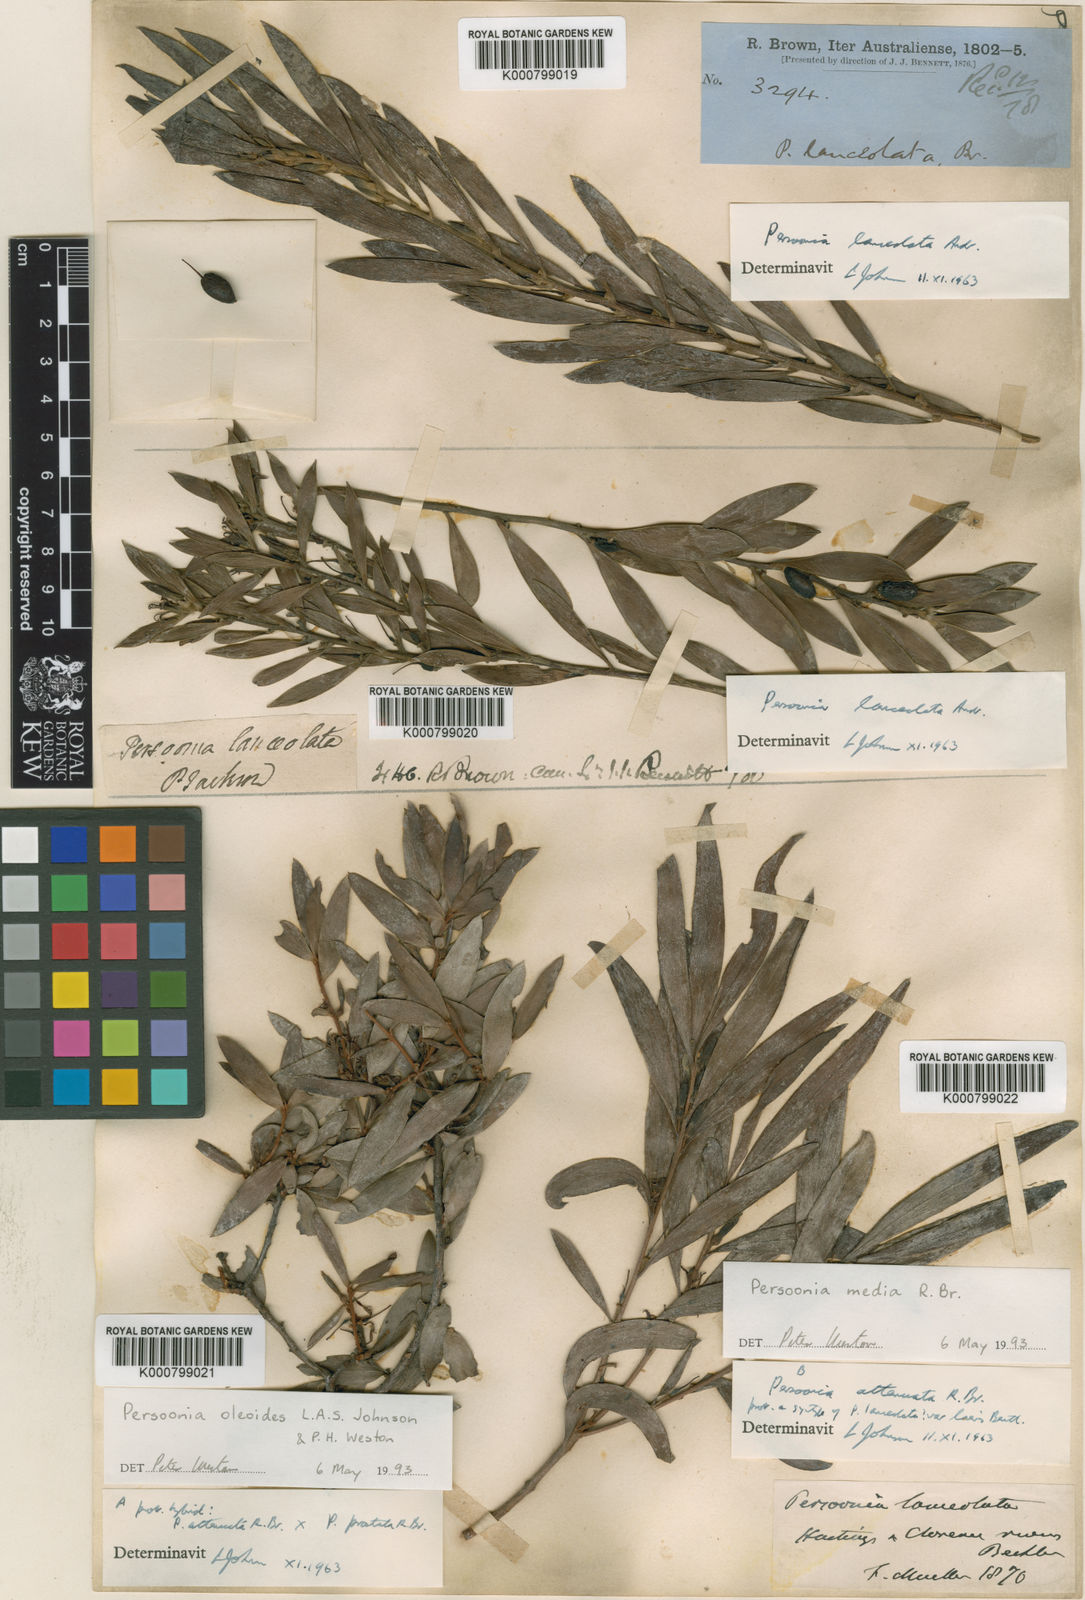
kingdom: Plantae
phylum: Tracheophyta
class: Magnoliopsida
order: Proteales
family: Proteaceae
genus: Persoonia
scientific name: Persoonia
